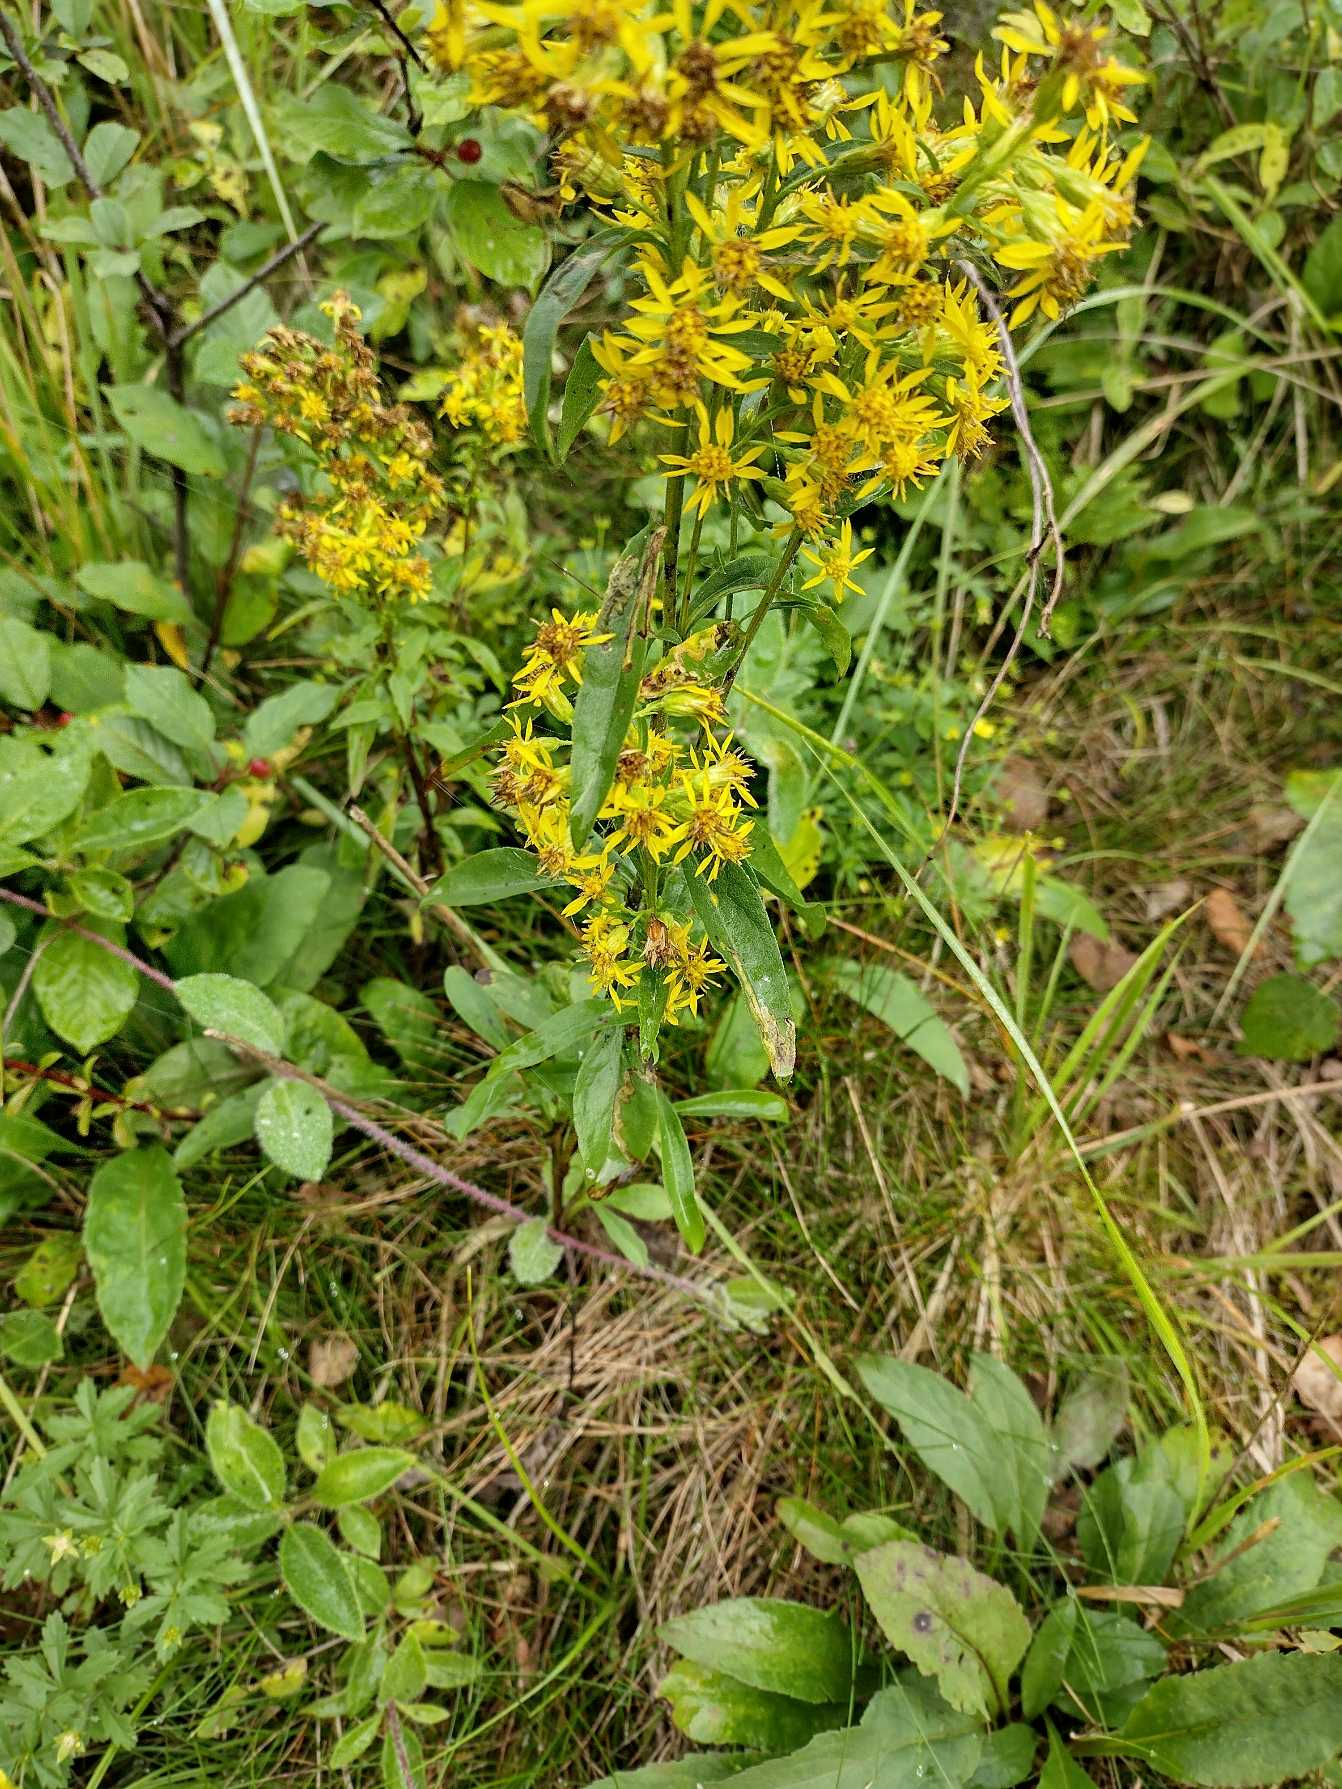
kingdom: Plantae
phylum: Tracheophyta
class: Magnoliopsida
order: Asterales
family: Asteraceae
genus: Solidago
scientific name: Solidago virgaurea
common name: Almindelig gyldenris
